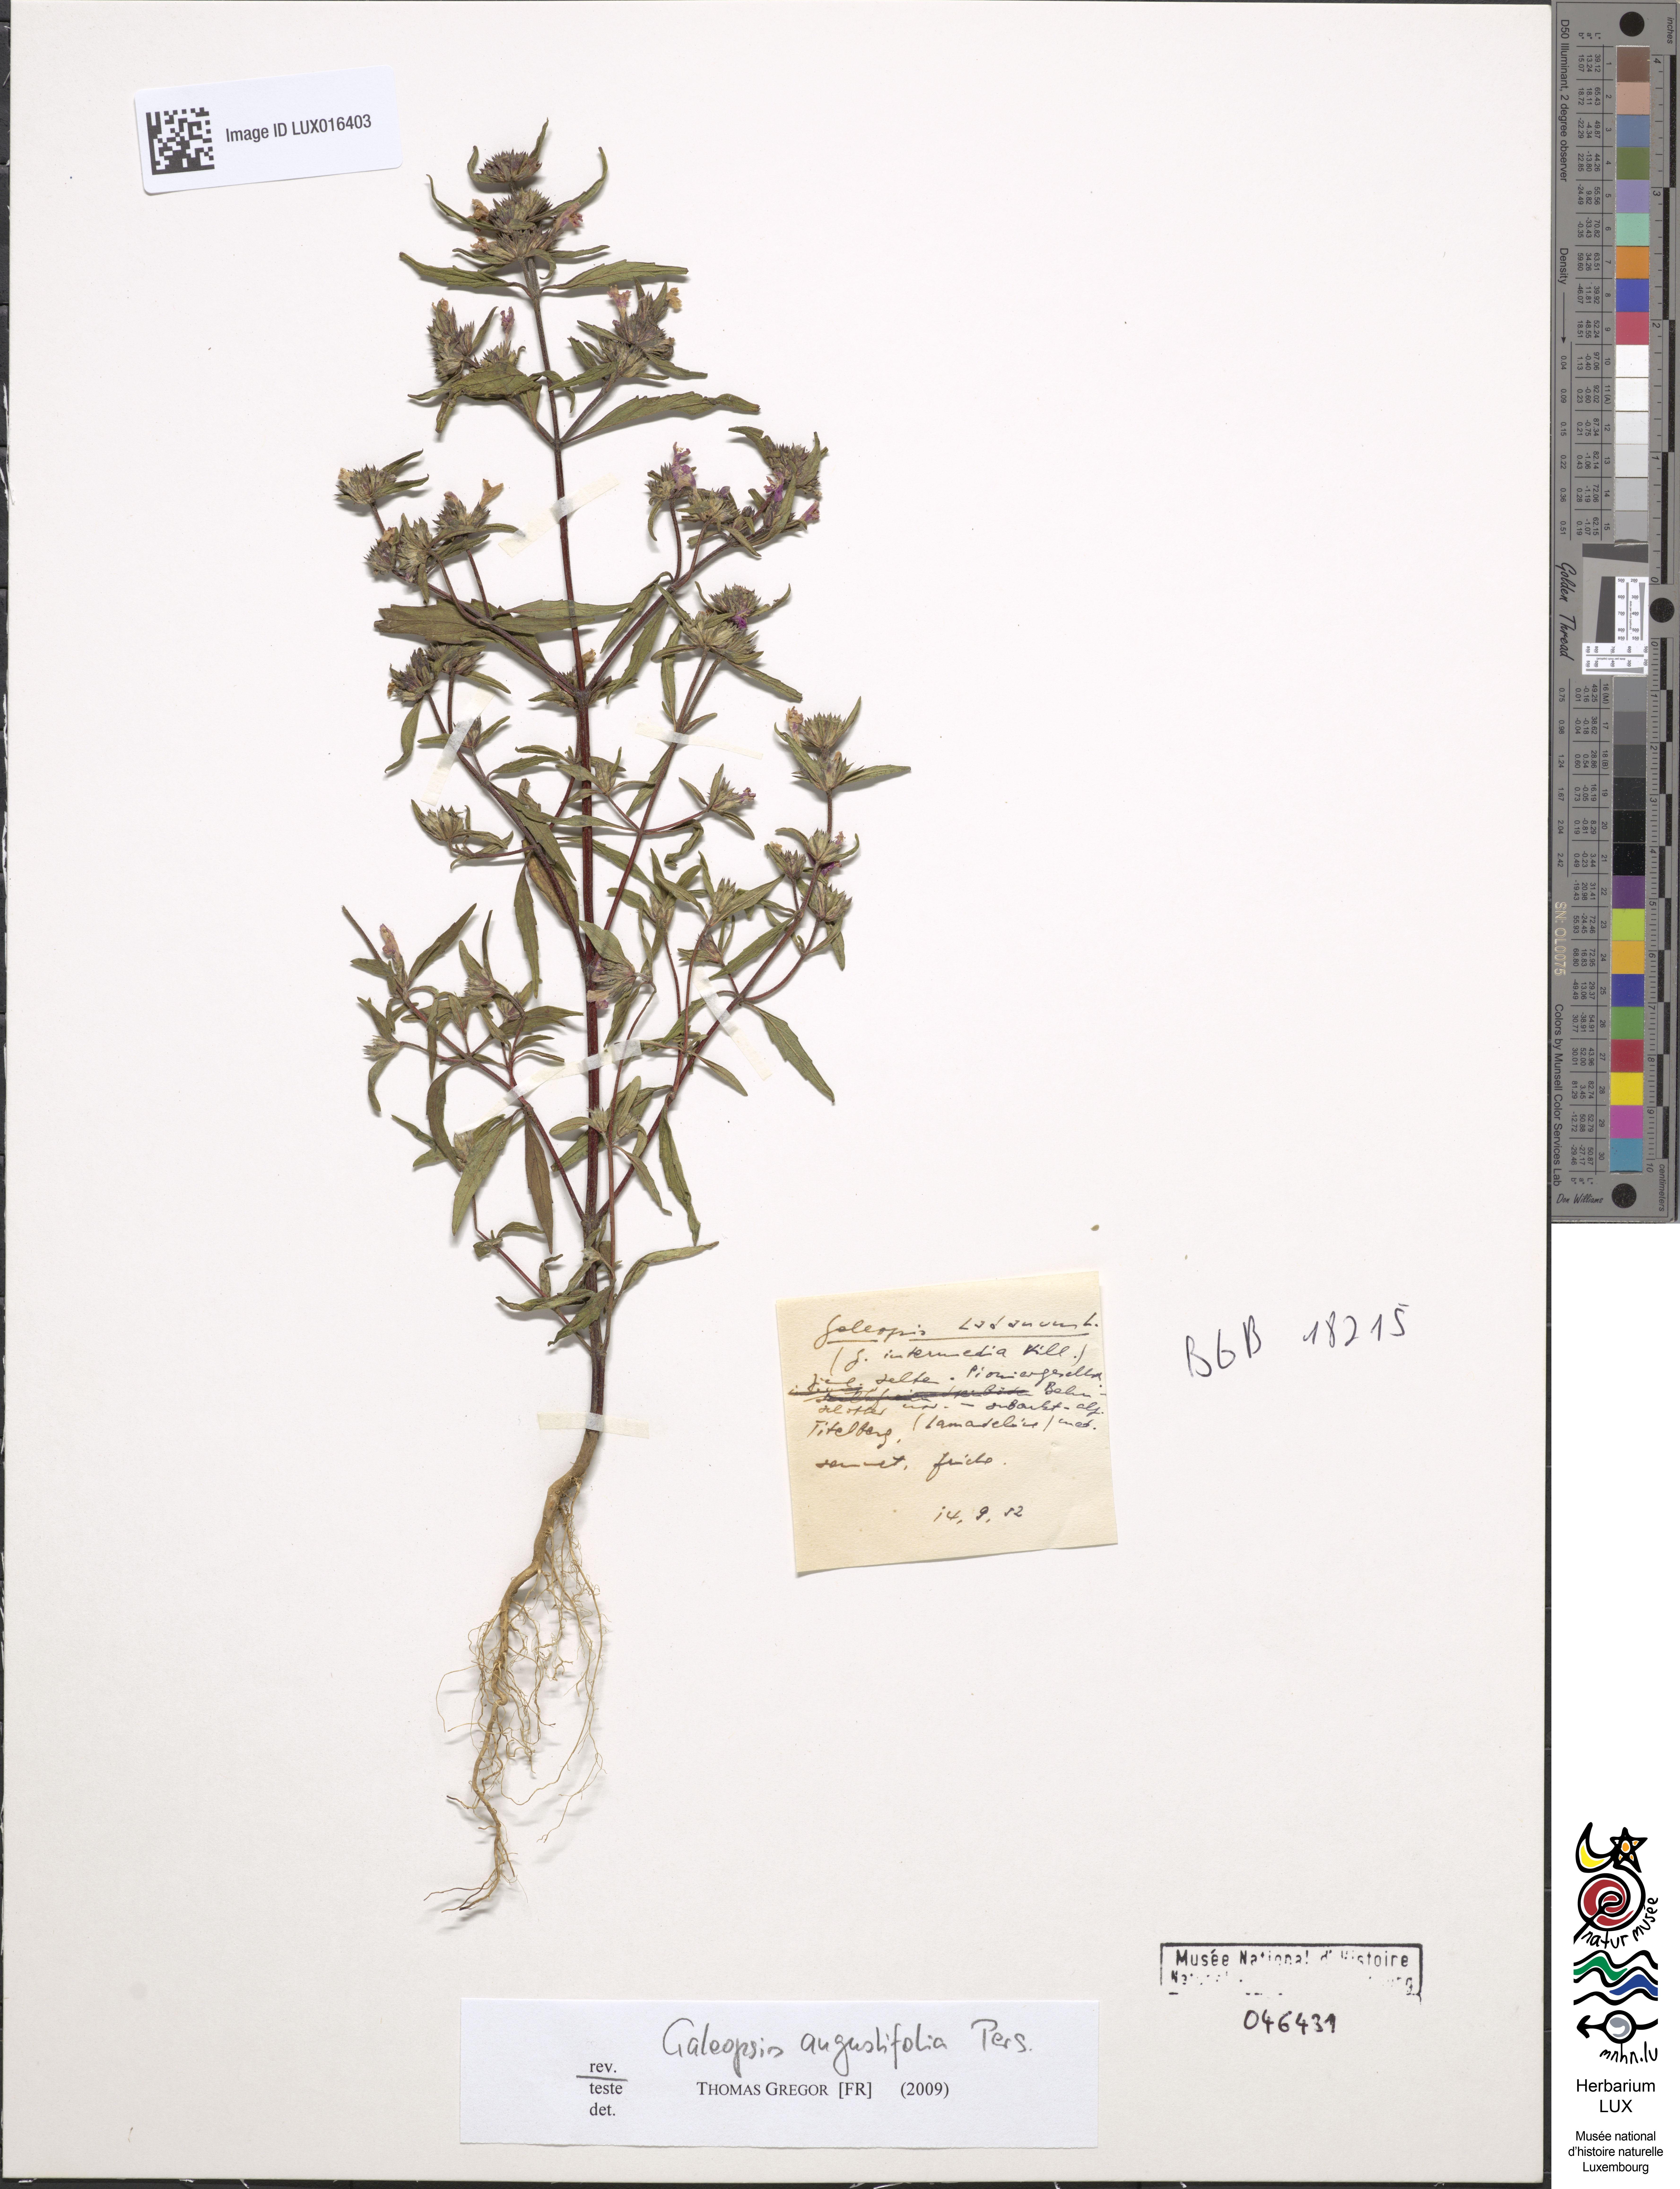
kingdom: Plantae
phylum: Tracheophyta
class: Magnoliopsida
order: Lamiales
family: Lamiaceae
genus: Galeopsis
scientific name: Galeopsis angustifolia
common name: Red hemp-nettle
